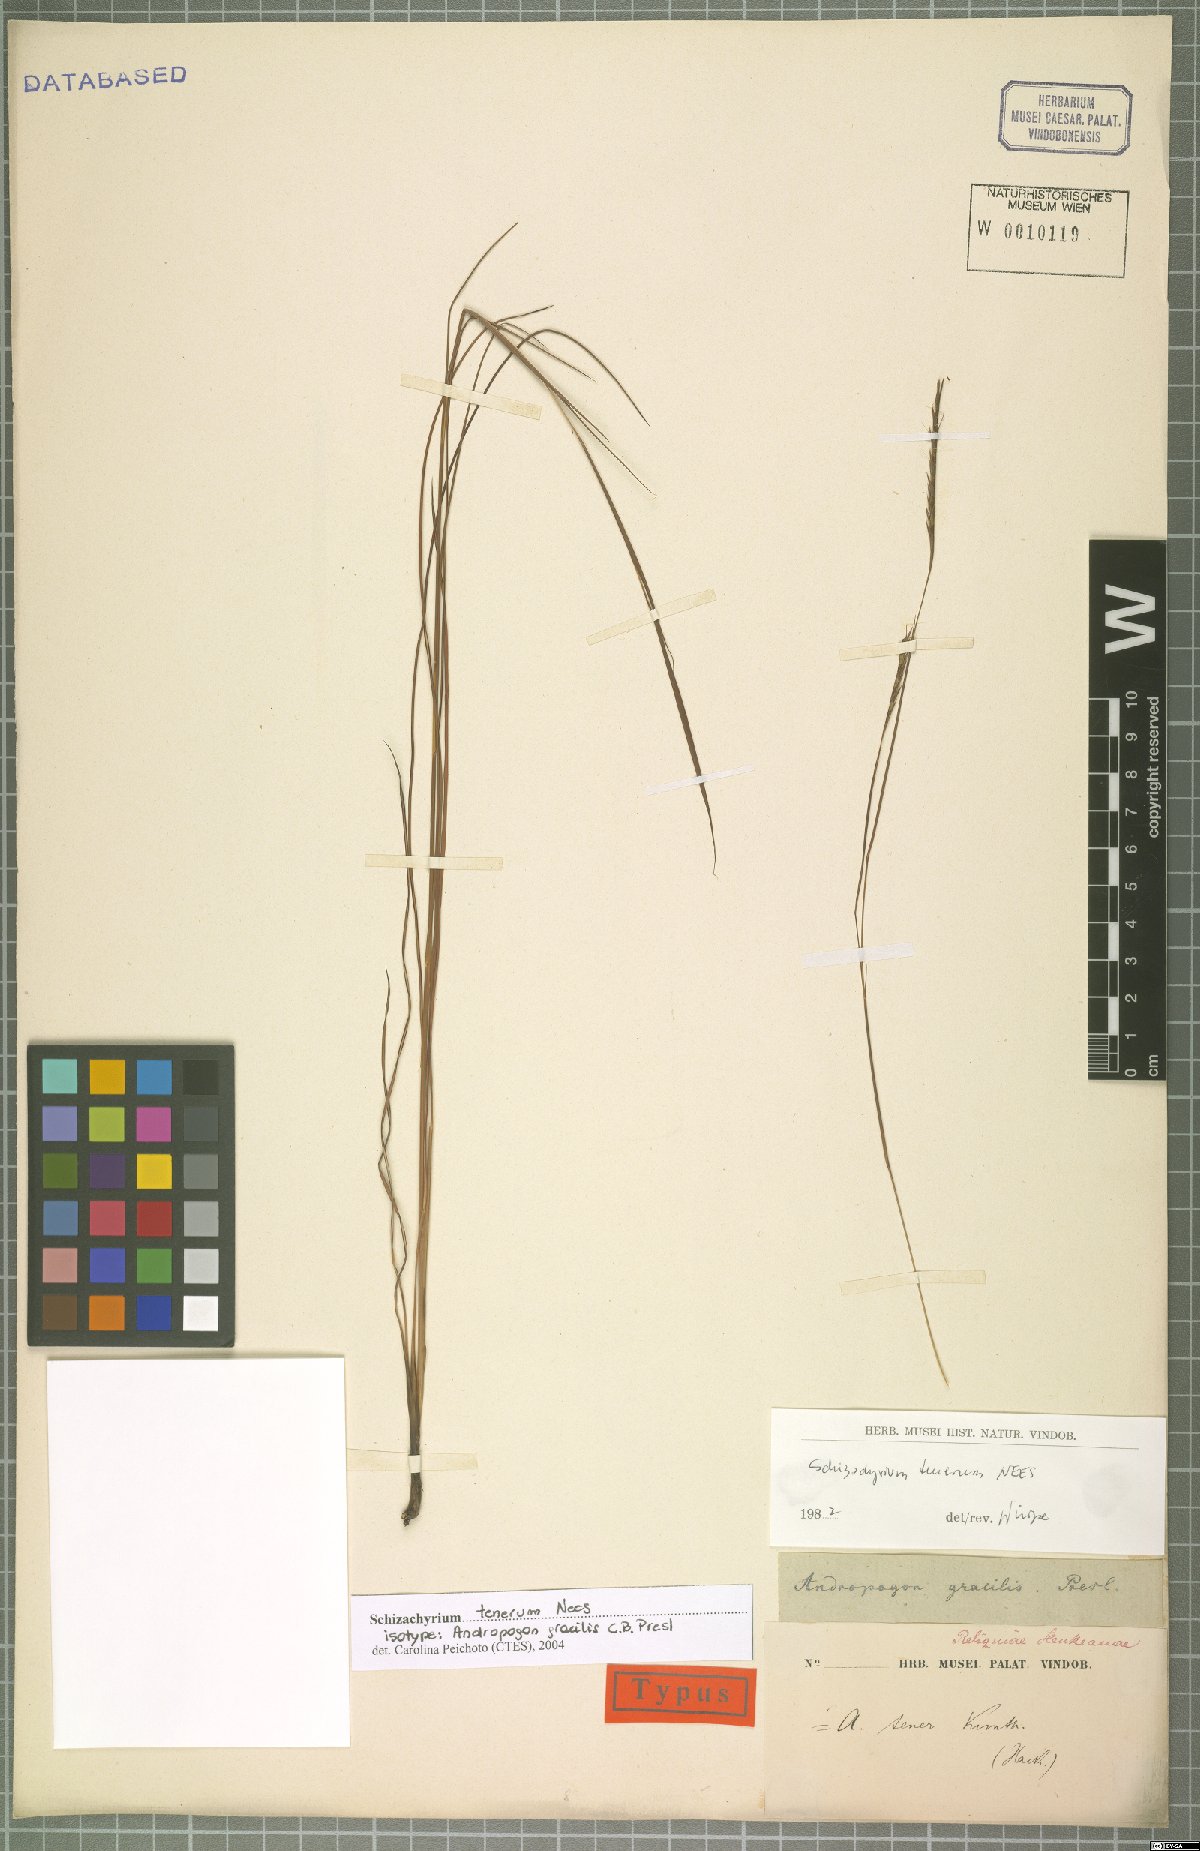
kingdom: Plantae
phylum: Tracheophyta
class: Liliopsida
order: Poales
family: Poaceae
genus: Andropogon
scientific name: Andropogon tener
